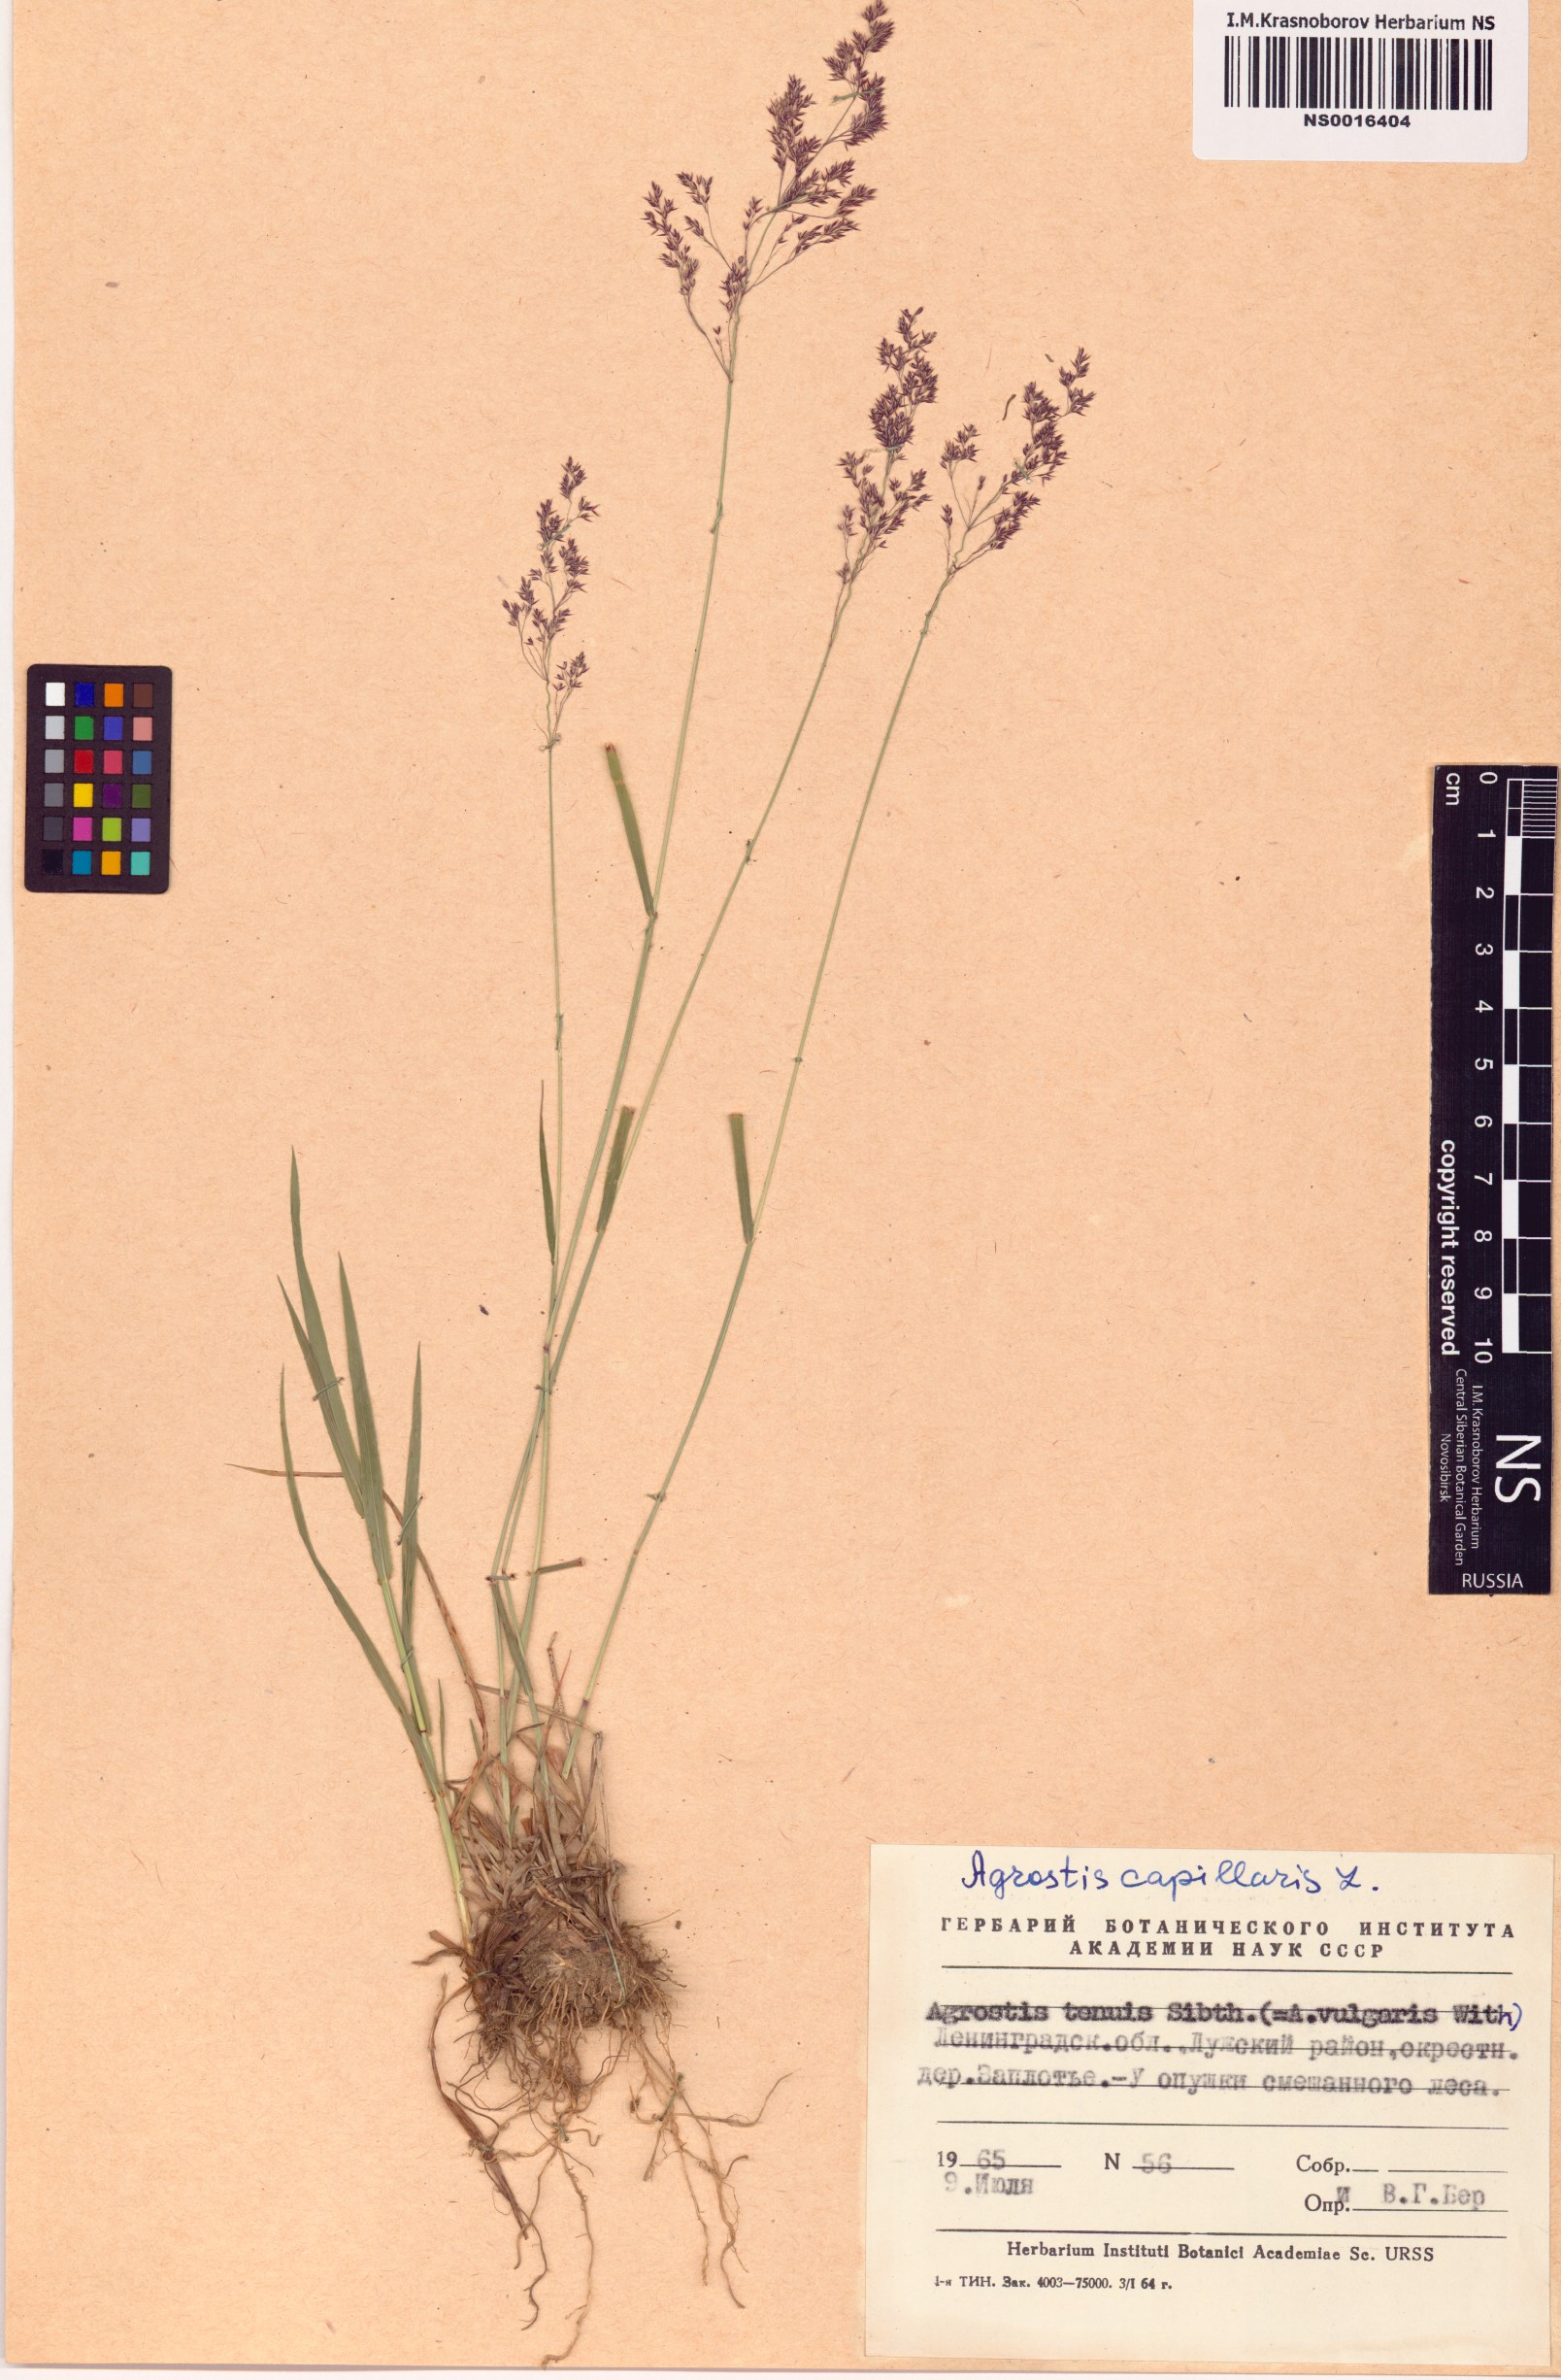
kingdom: Plantae
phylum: Tracheophyta
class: Liliopsida
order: Poales
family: Poaceae
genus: Agrostis
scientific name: Agrostis capillaris
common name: Colonial bentgrass
